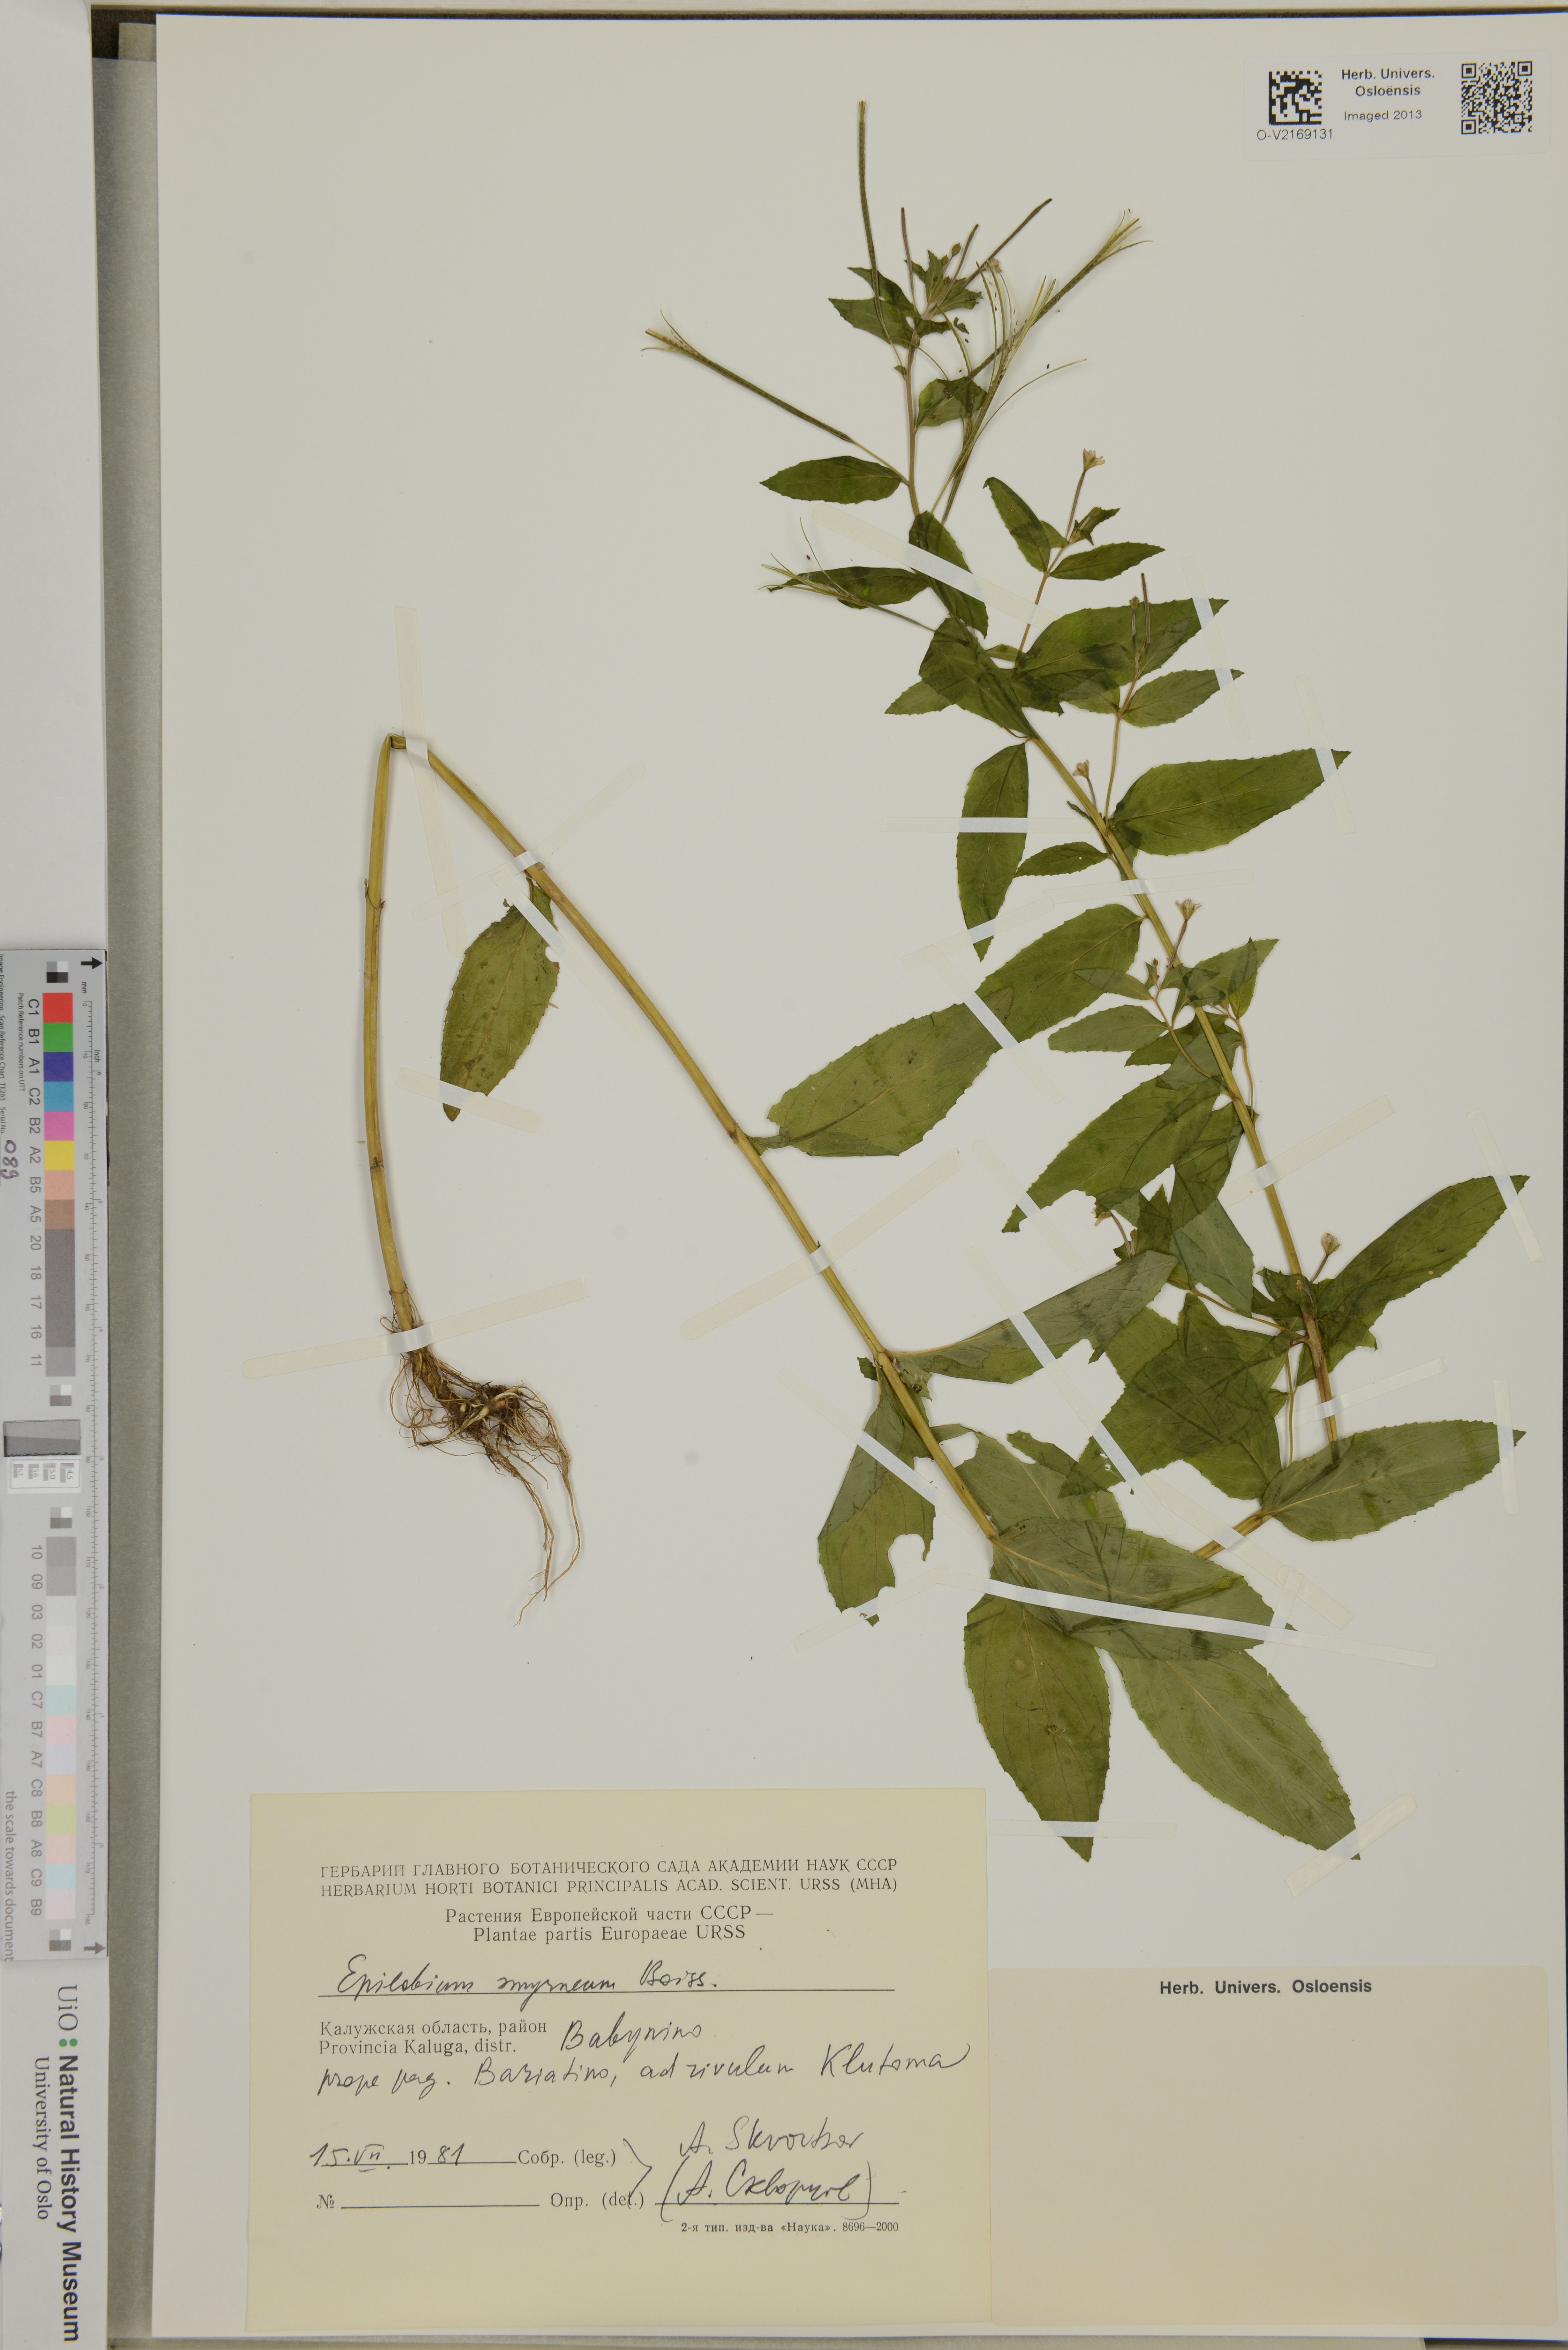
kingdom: Plantae
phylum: Tracheophyta
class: Magnoliopsida
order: Myrtales
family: Onagraceae
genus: Epilobium
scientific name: Epilobium roseum
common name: Pale willowherb
